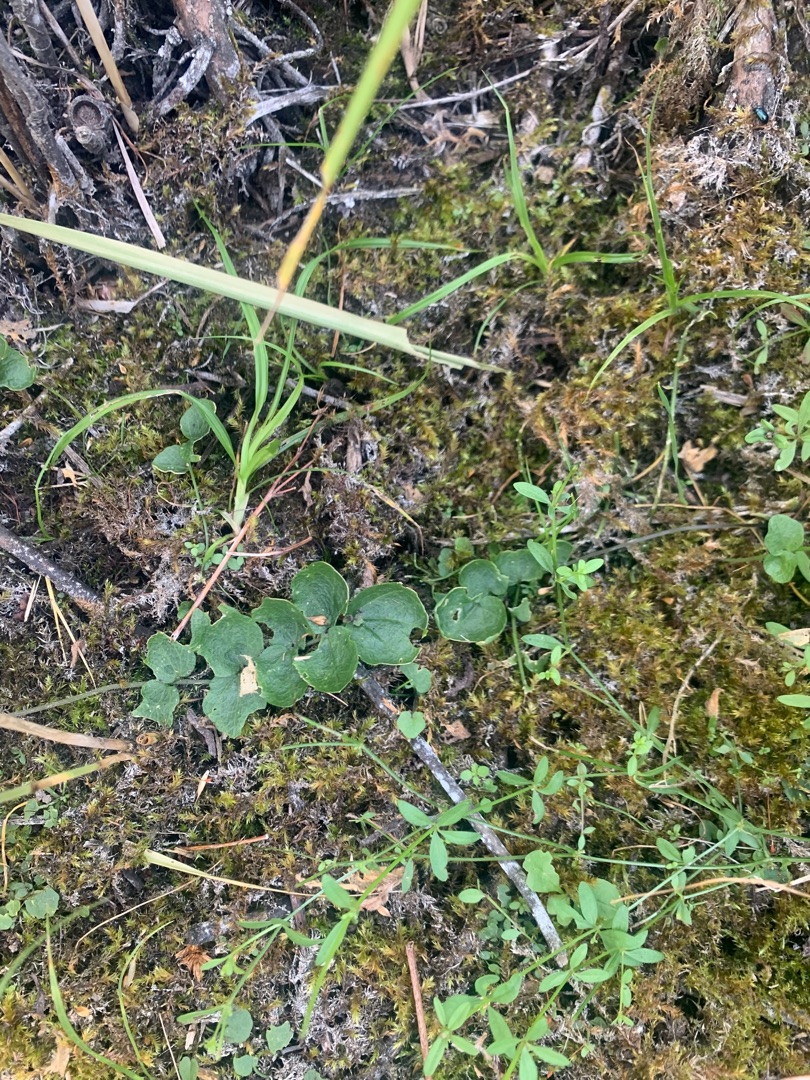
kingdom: Plantae
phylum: Tracheophyta
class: Magnoliopsida
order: Brassicales
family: Brassicaceae
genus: Cardamine
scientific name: Cardamine
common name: Springklapslægten
